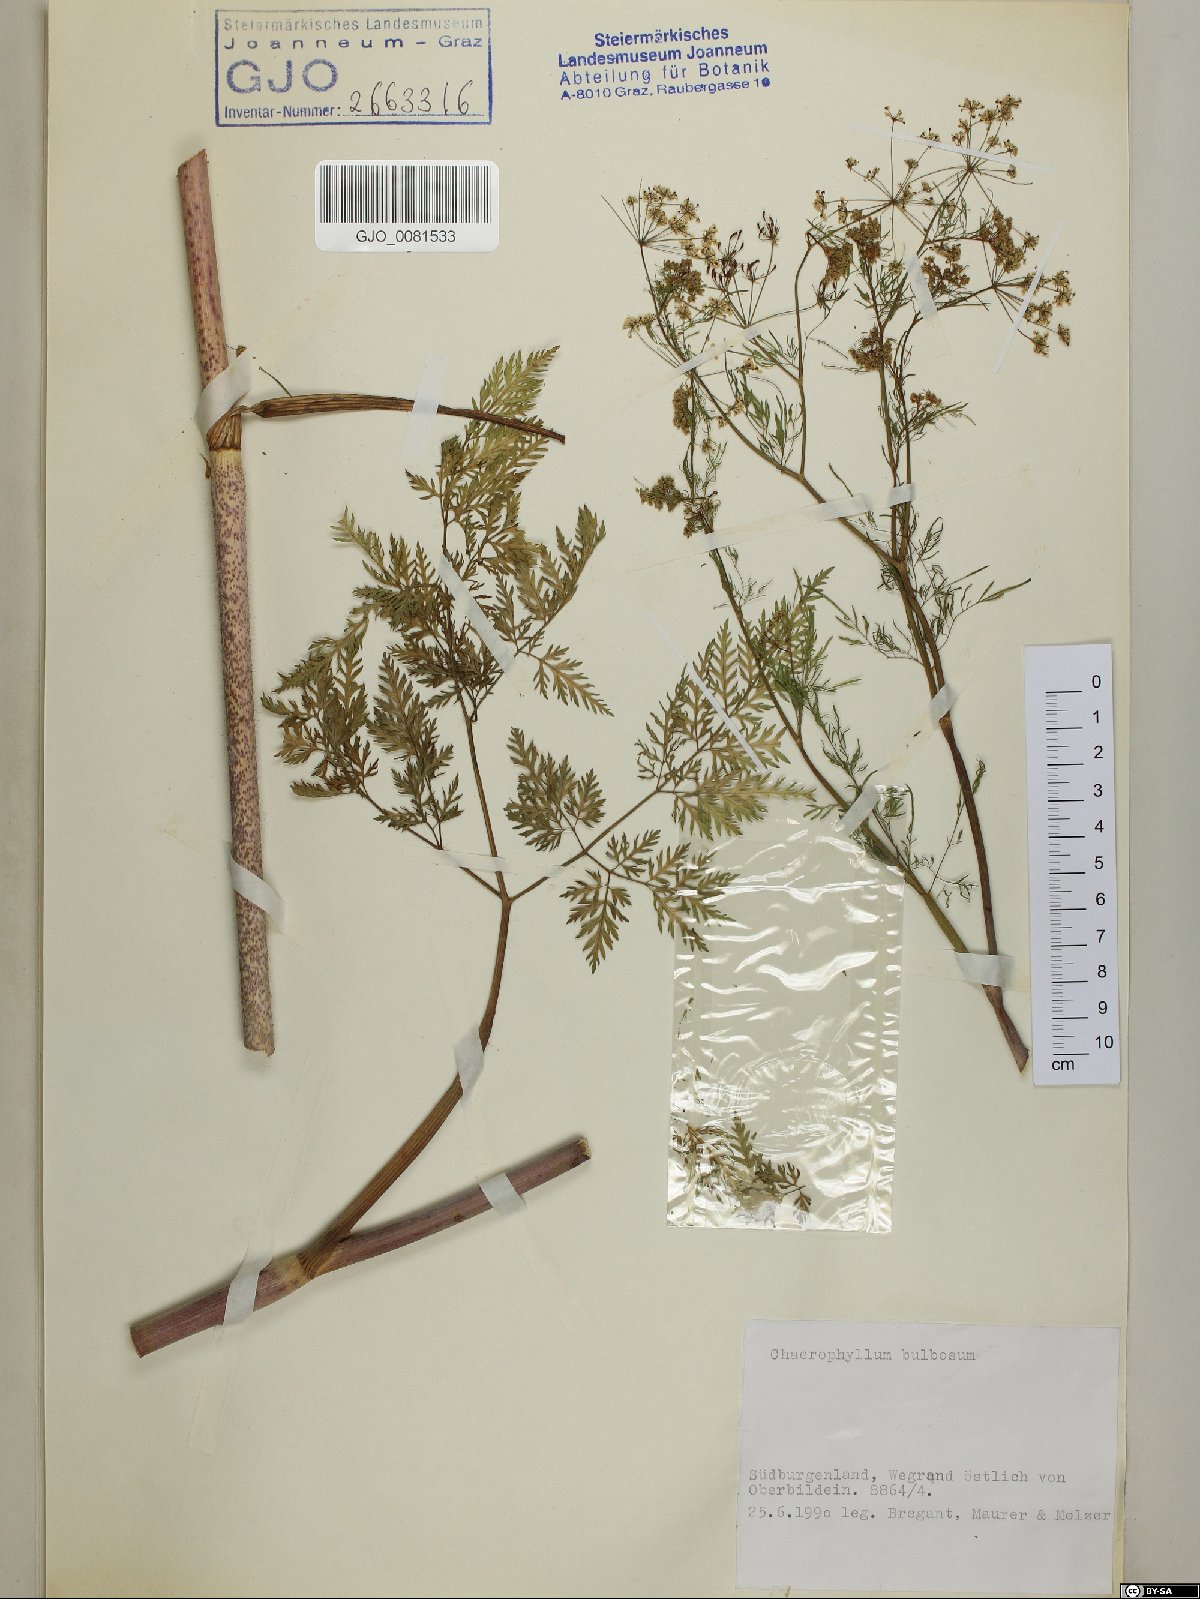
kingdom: Plantae
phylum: Tracheophyta
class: Magnoliopsida
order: Apiales
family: Apiaceae
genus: Chaerophyllum
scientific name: Chaerophyllum bulbosum
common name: Bulbous chervil
